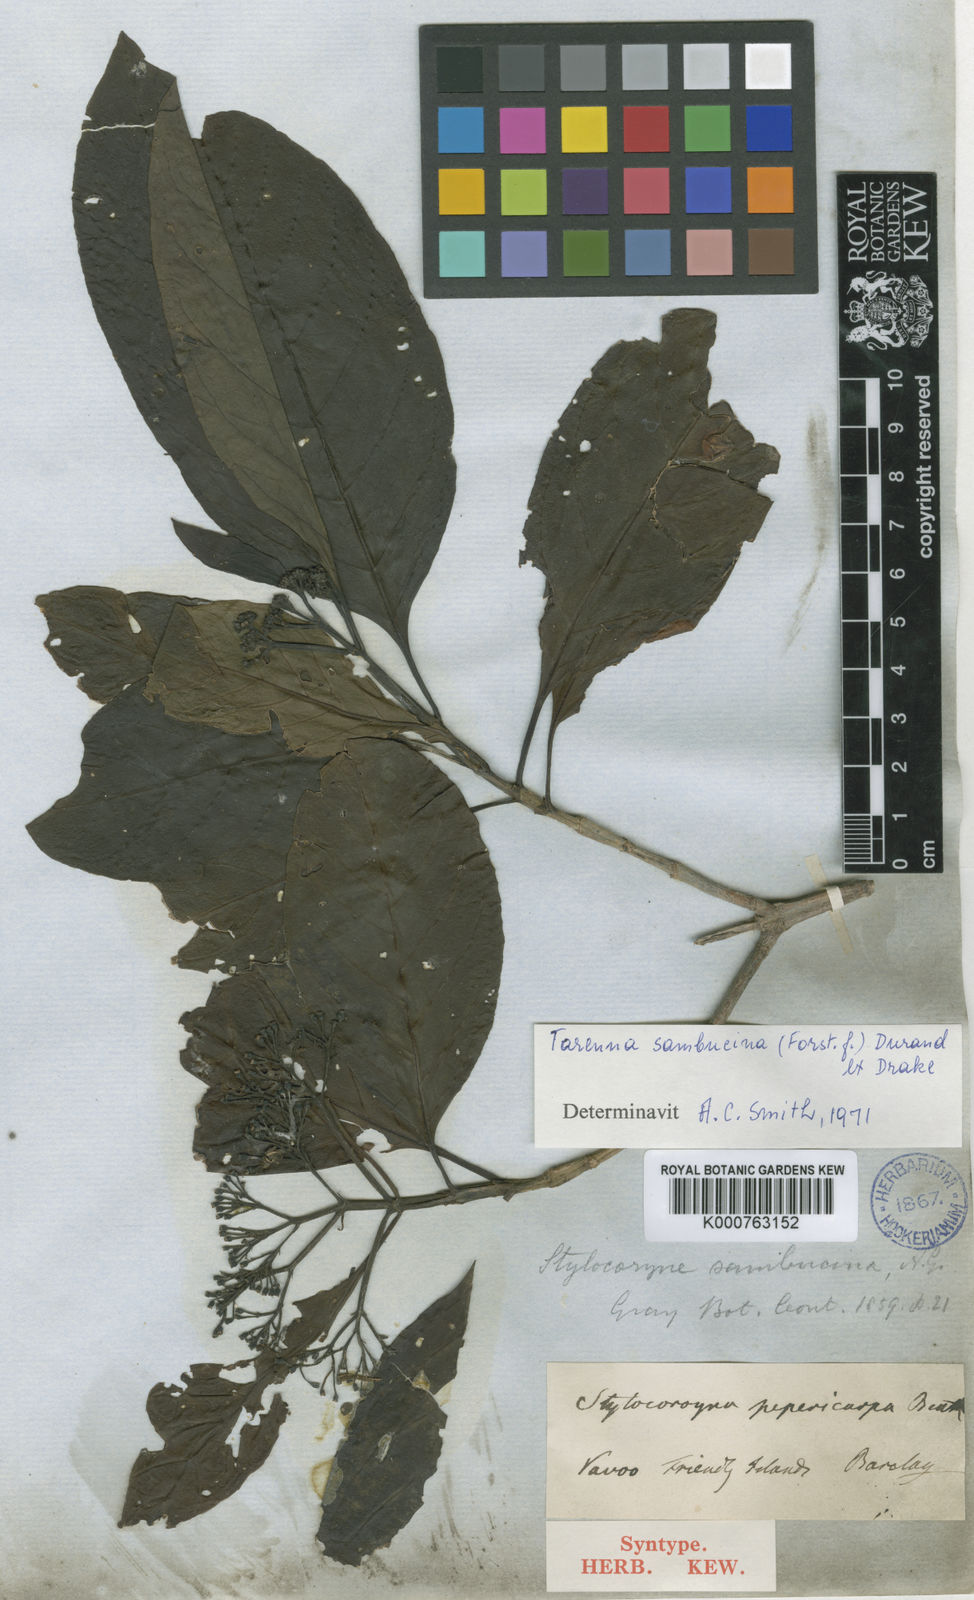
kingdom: Plantae
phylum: Tracheophyta
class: Magnoliopsida
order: Gentianales
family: Rubiaceae
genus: Tarenna
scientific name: Tarenna sambucina
